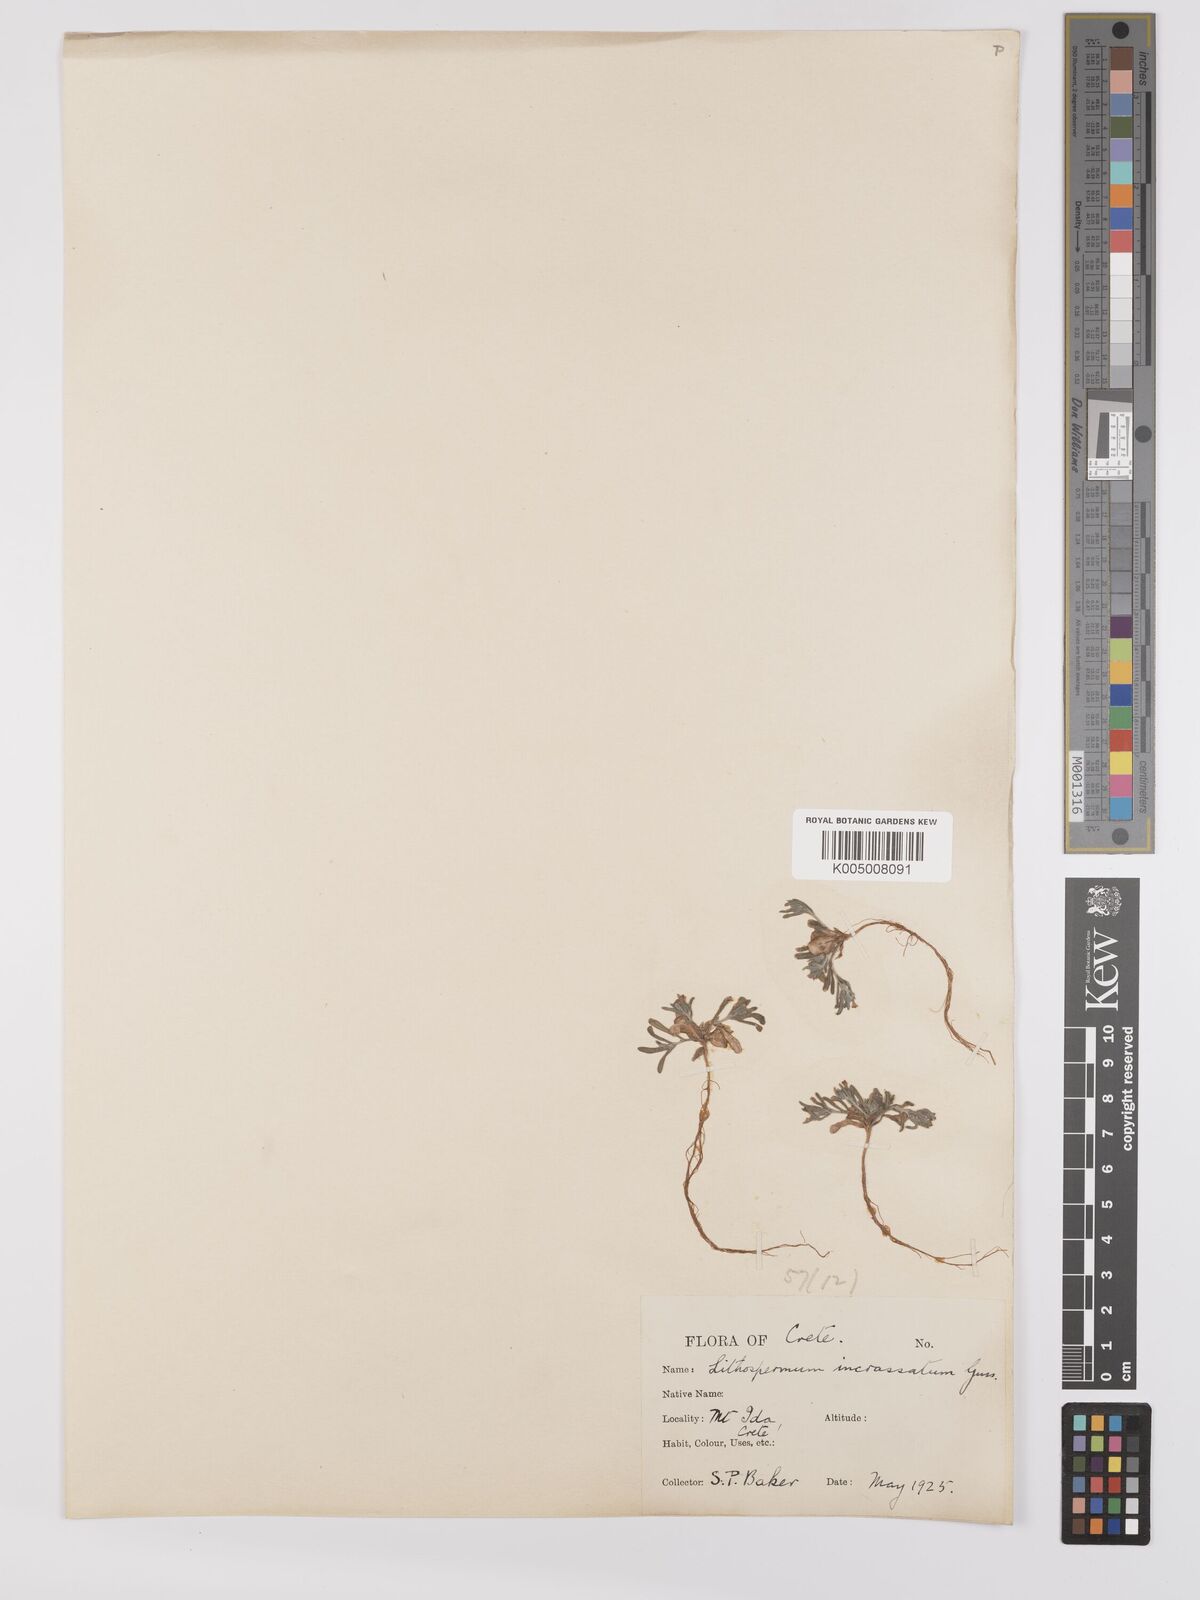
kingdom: Plantae
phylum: Tracheophyta
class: Magnoliopsida
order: Boraginales
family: Boraginaceae
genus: Buglossoides
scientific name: Buglossoides incrassata
